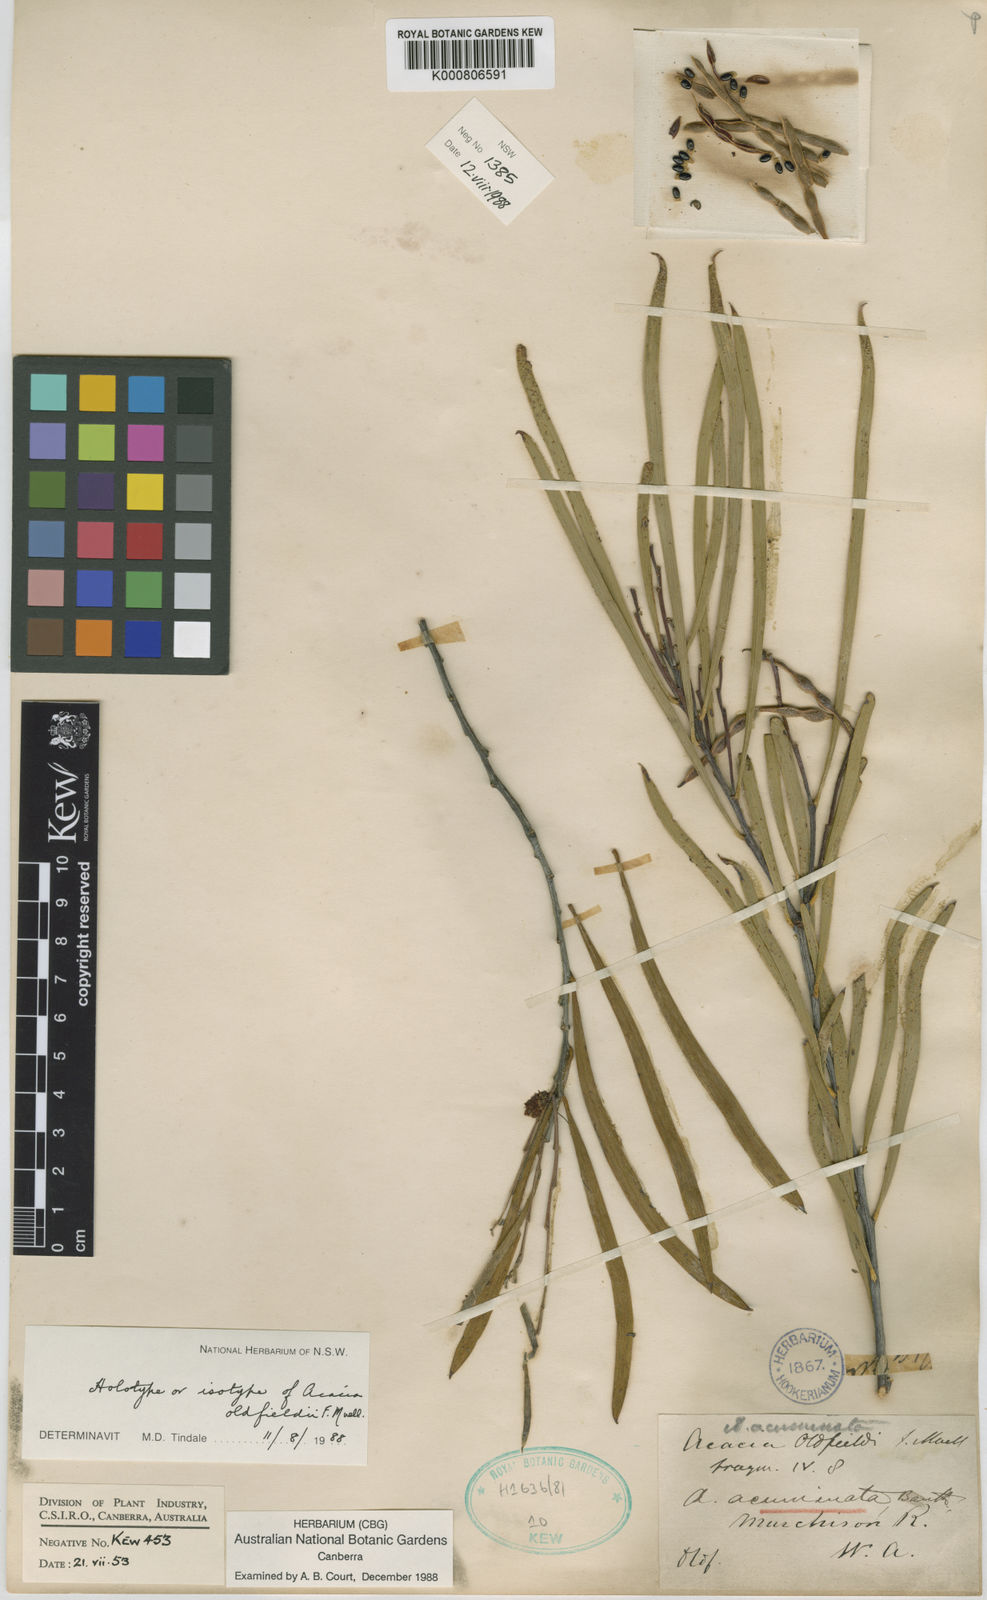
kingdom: Plantae
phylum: Tracheophyta
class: Magnoliopsida
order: Fabales
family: Fabaceae
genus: Acacia
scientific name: Acacia acuminata
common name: Jam wattle
